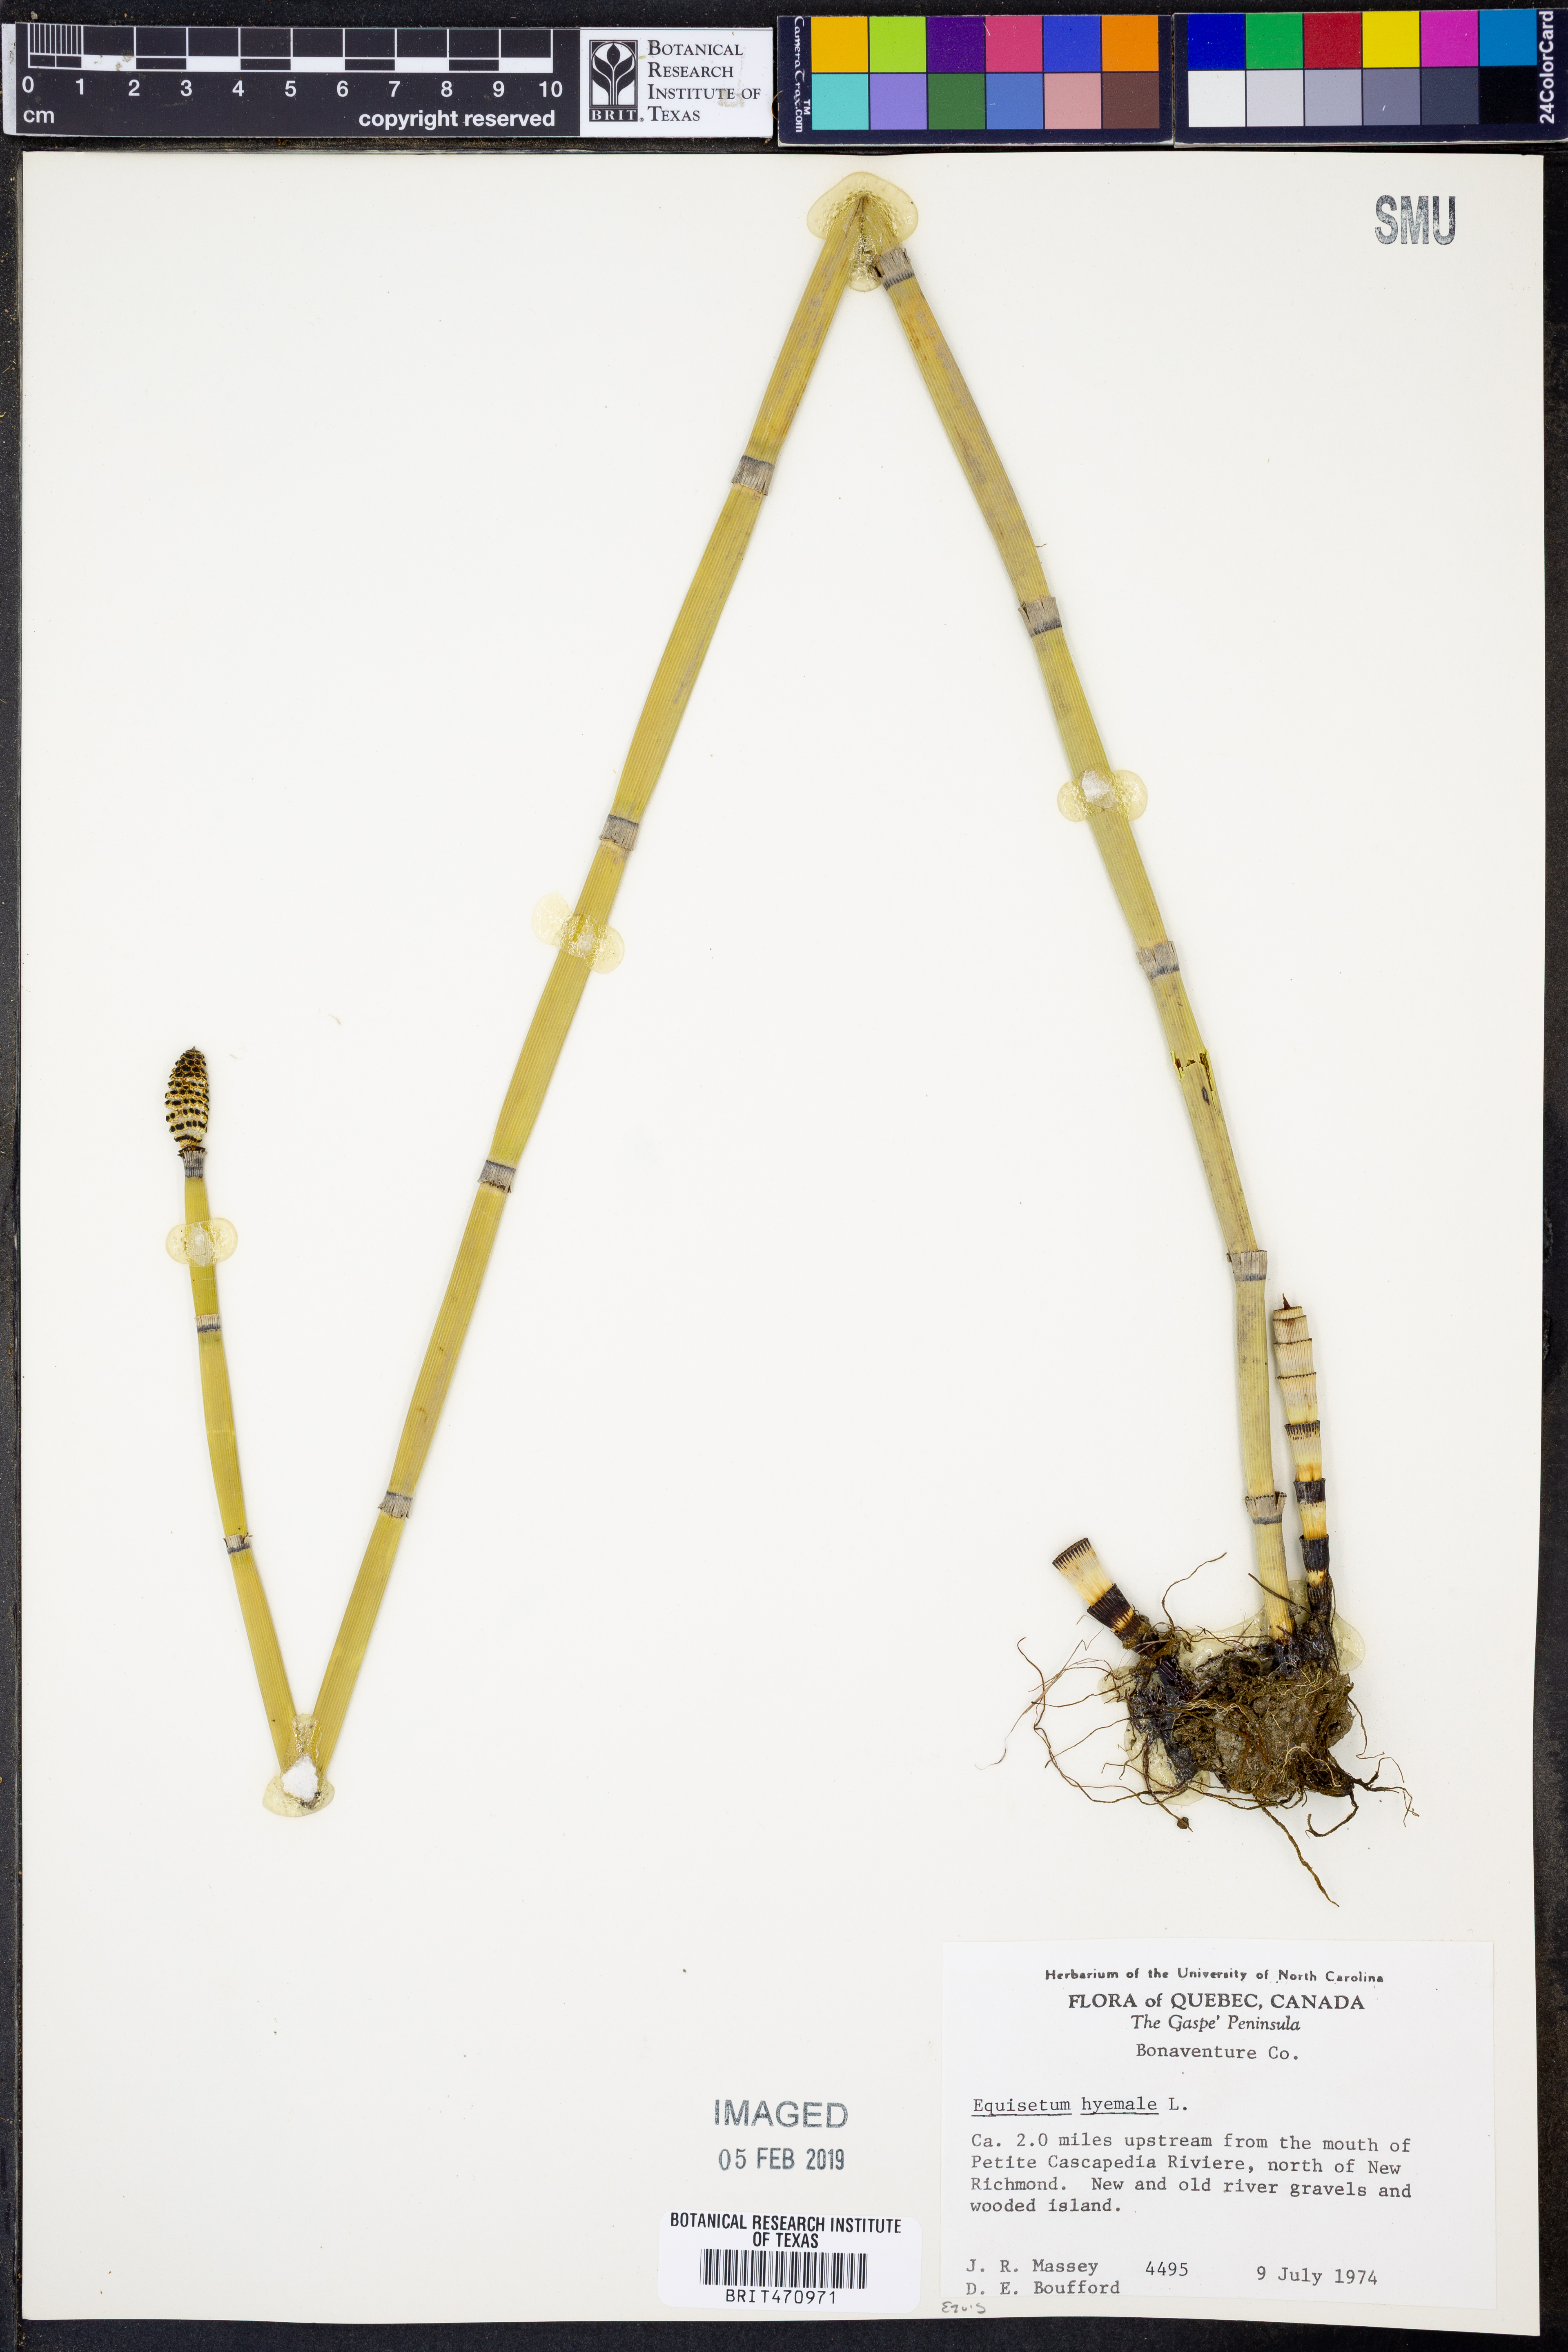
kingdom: Plantae
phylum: Tracheophyta
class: Polypodiopsida
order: Equisetales
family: Equisetaceae
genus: Equisetum
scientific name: Equisetum hyemale
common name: Rough horsetail
